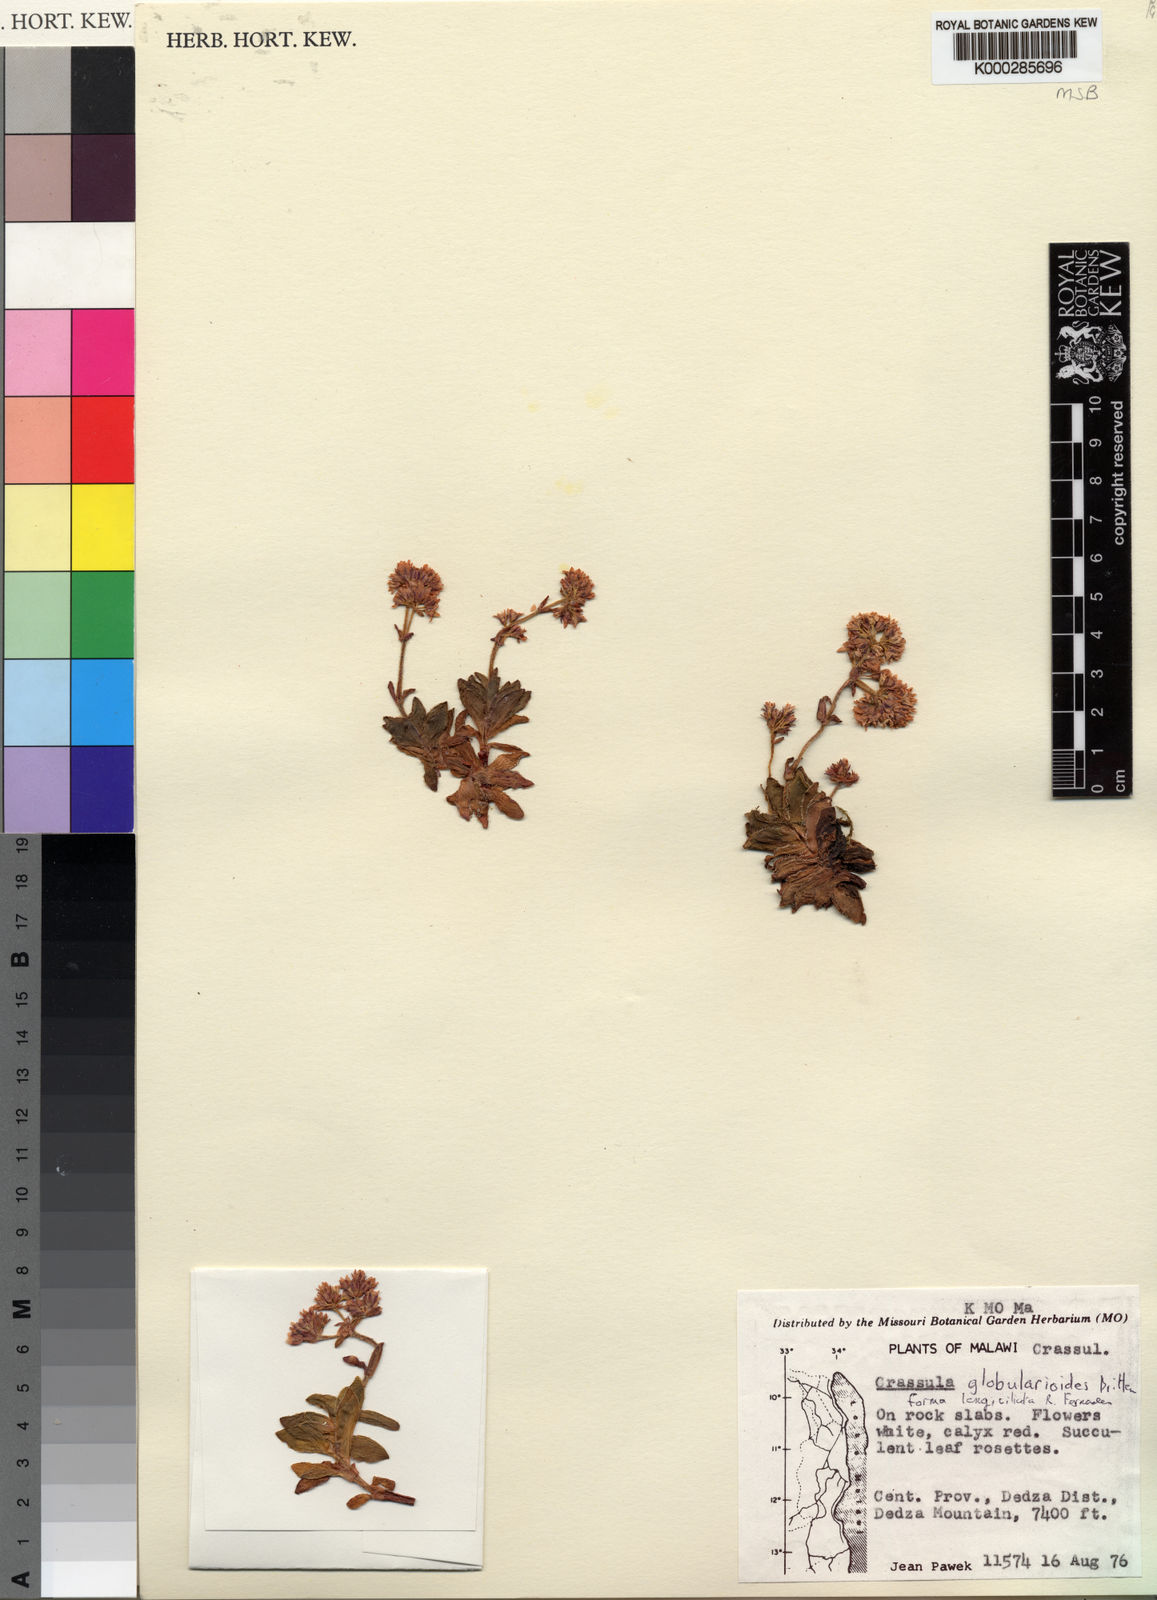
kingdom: Plantae
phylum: Tracheophyta
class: Magnoliopsida
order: Saxifragales
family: Crassulaceae
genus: Crassula
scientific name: Crassula globularioides
